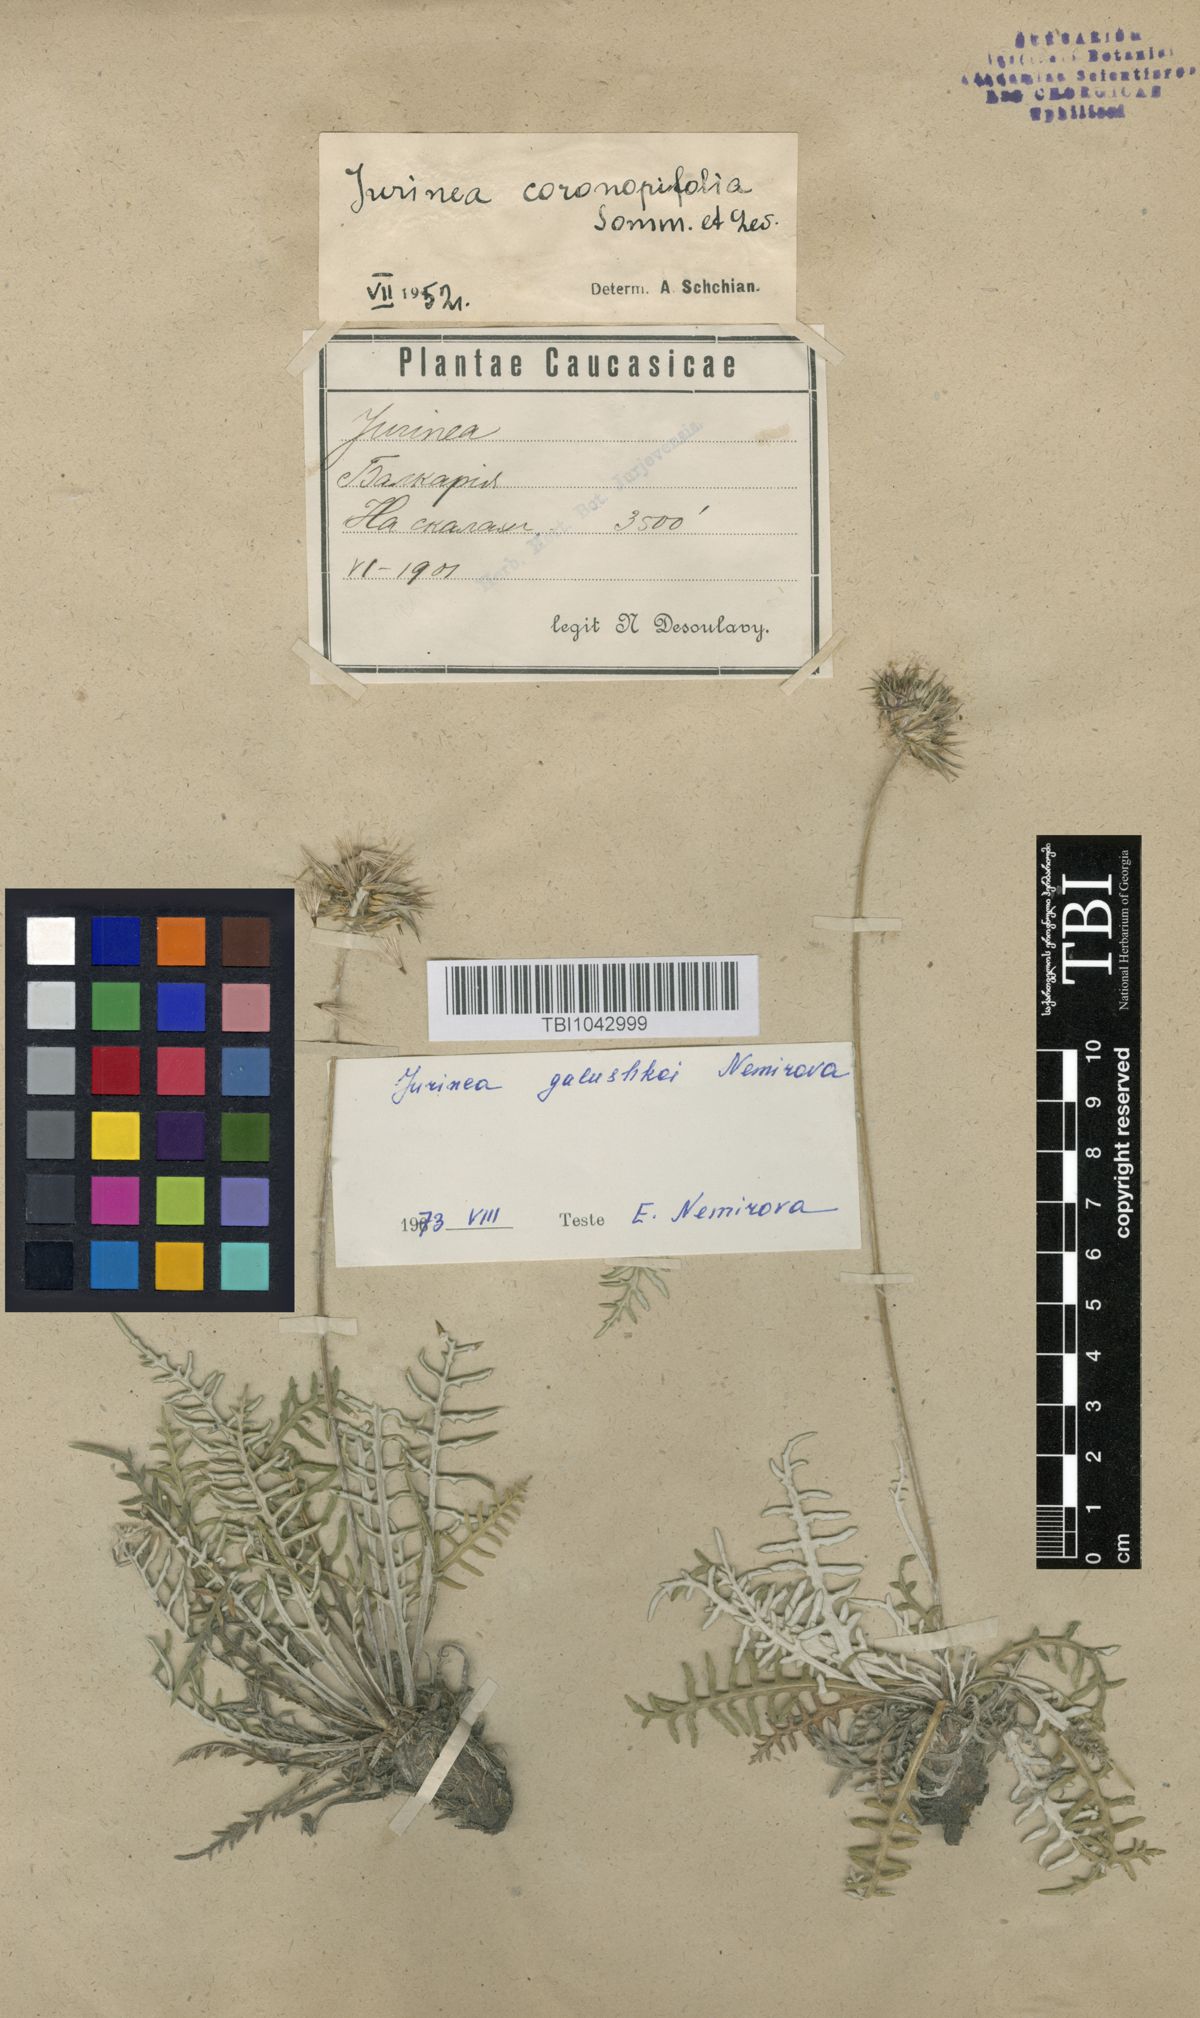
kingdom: Plantae
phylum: Tracheophyta
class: Magnoliopsida
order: Asterales
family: Asteraceae
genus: Jurinea
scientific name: Jurinea galushkoi
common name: Galushko's jurinea
